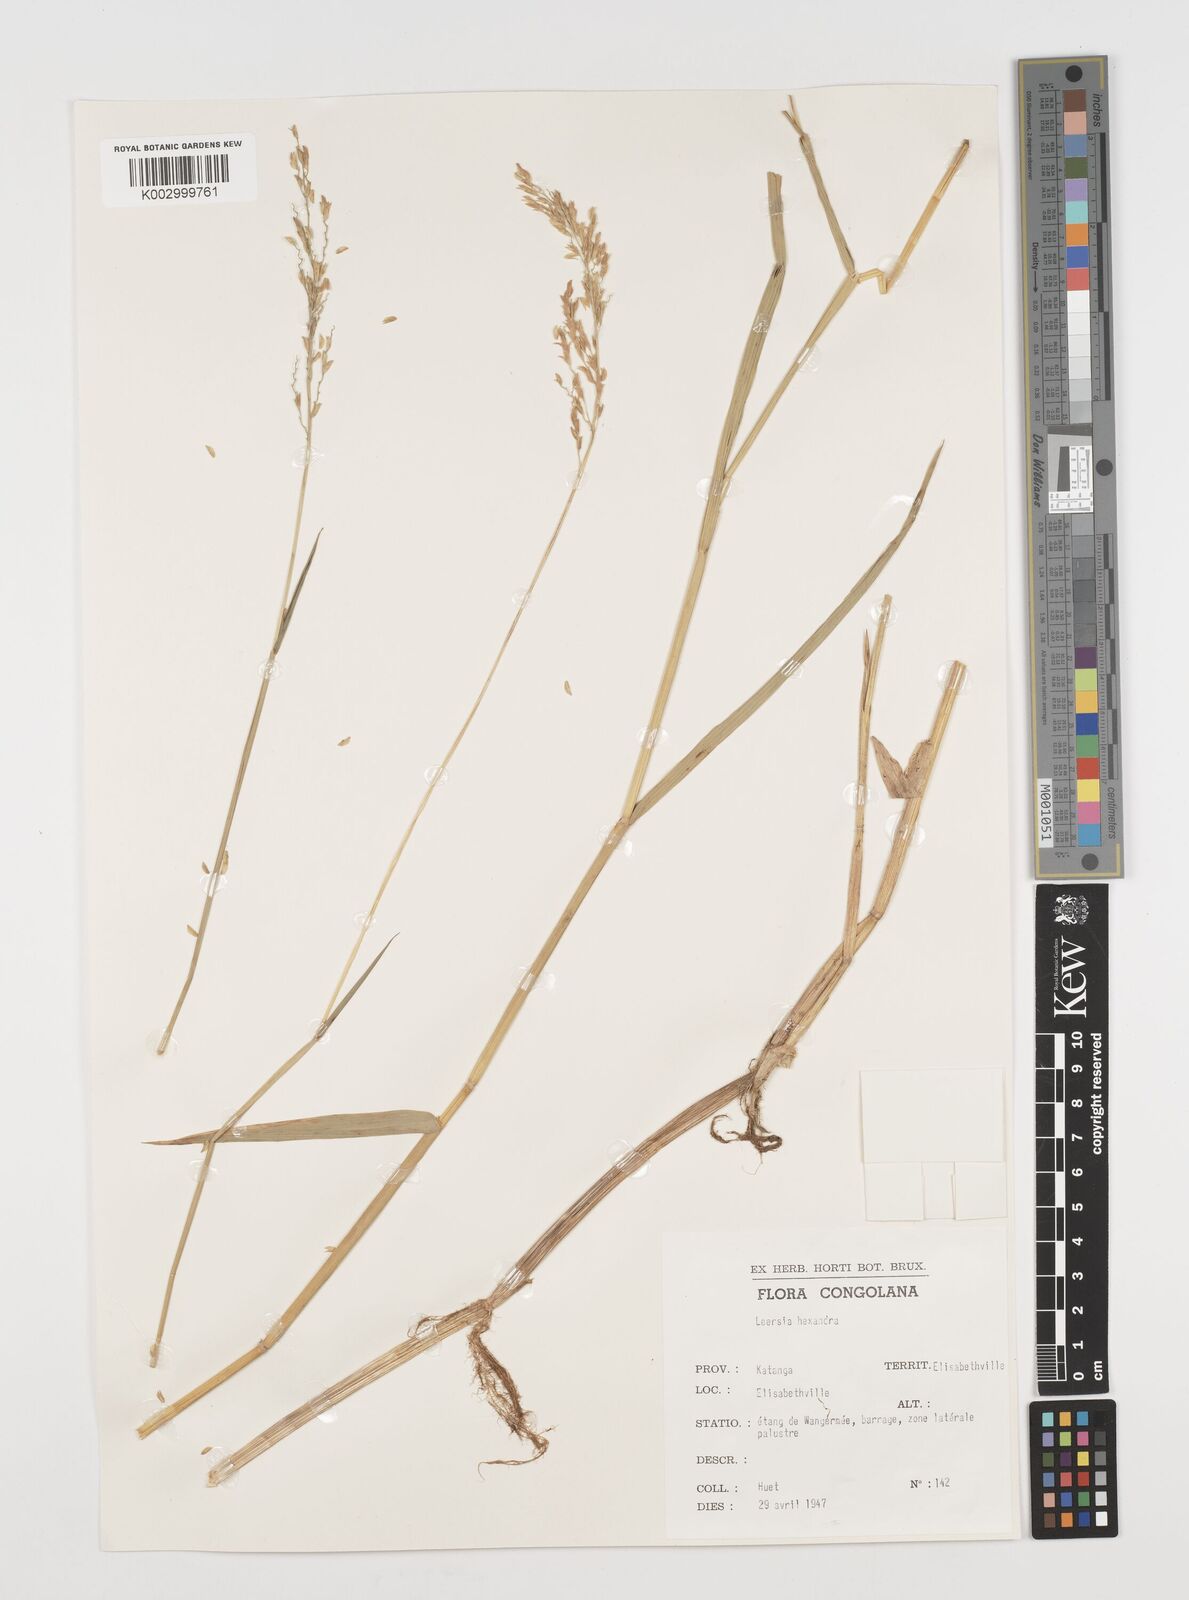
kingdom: Plantae
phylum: Tracheophyta
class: Liliopsida
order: Poales
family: Poaceae
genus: Leersia
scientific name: Leersia hexandra
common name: Southern cut grass
